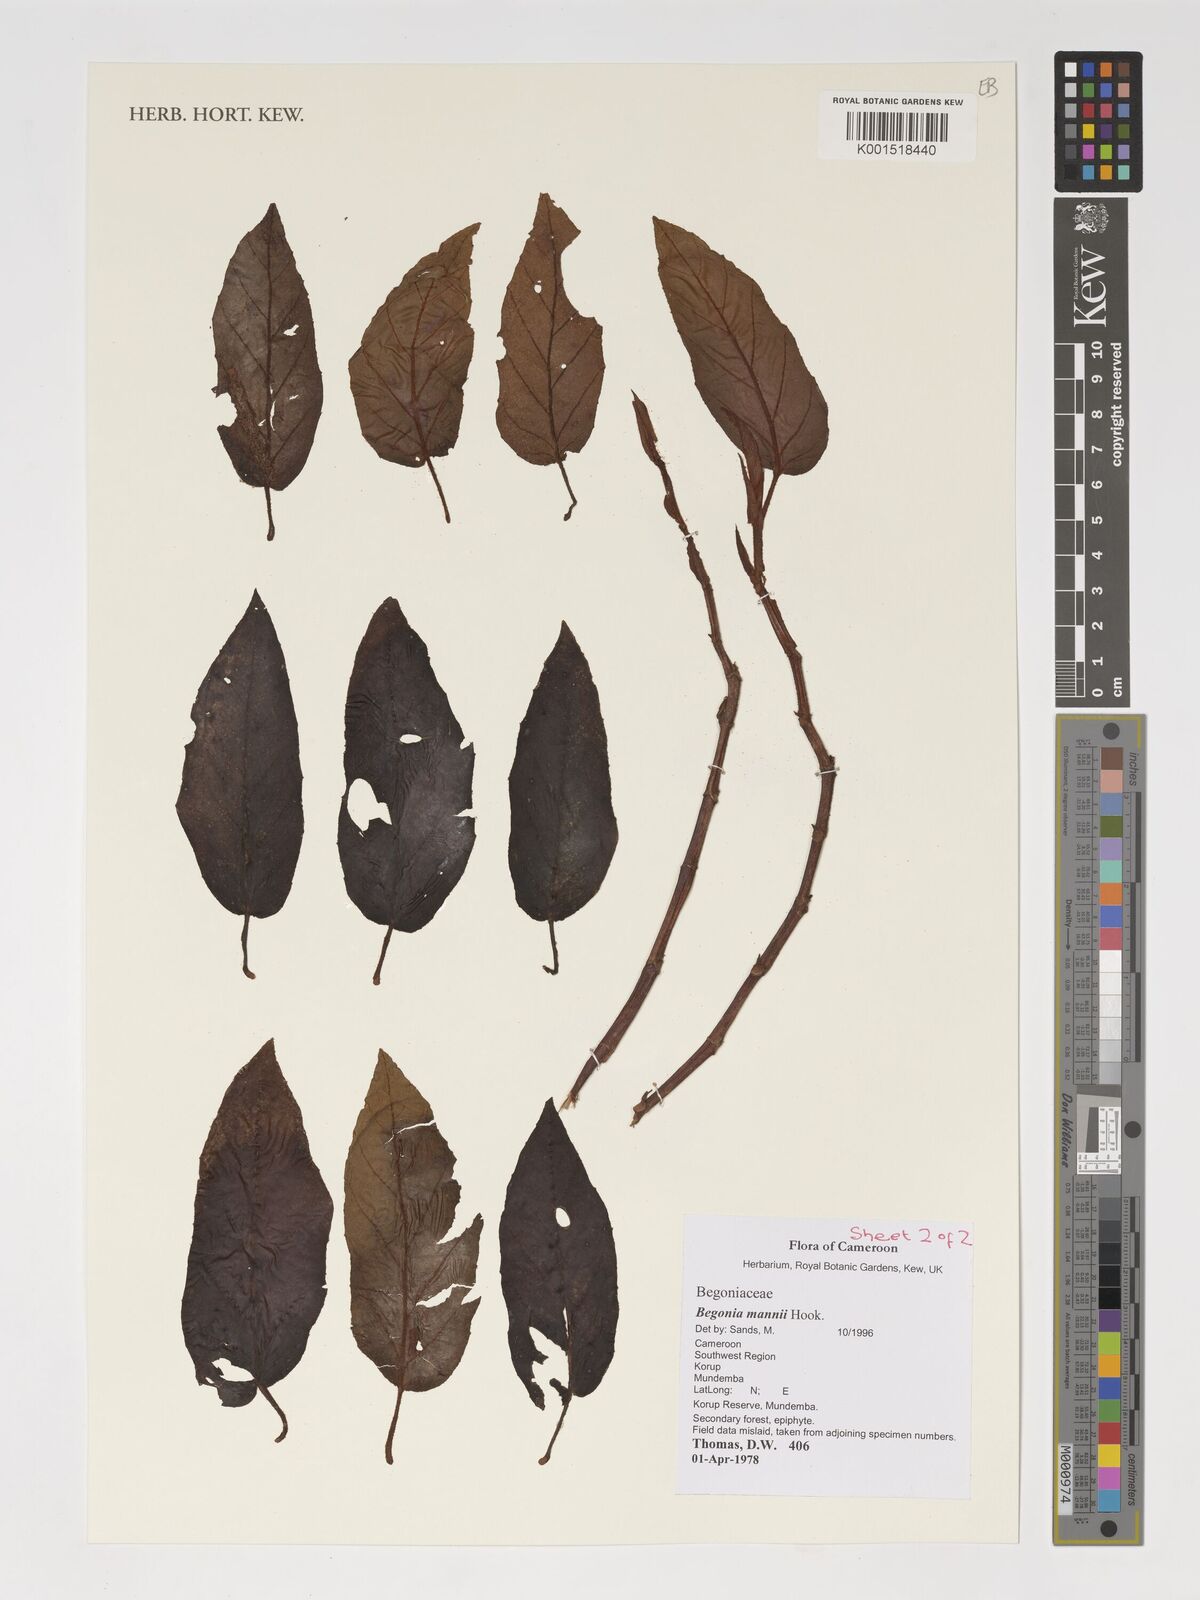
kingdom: Plantae
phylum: Tracheophyta
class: Magnoliopsida
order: Cucurbitales
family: Begoniaceae
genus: Begonia
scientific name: Begonia mannii
